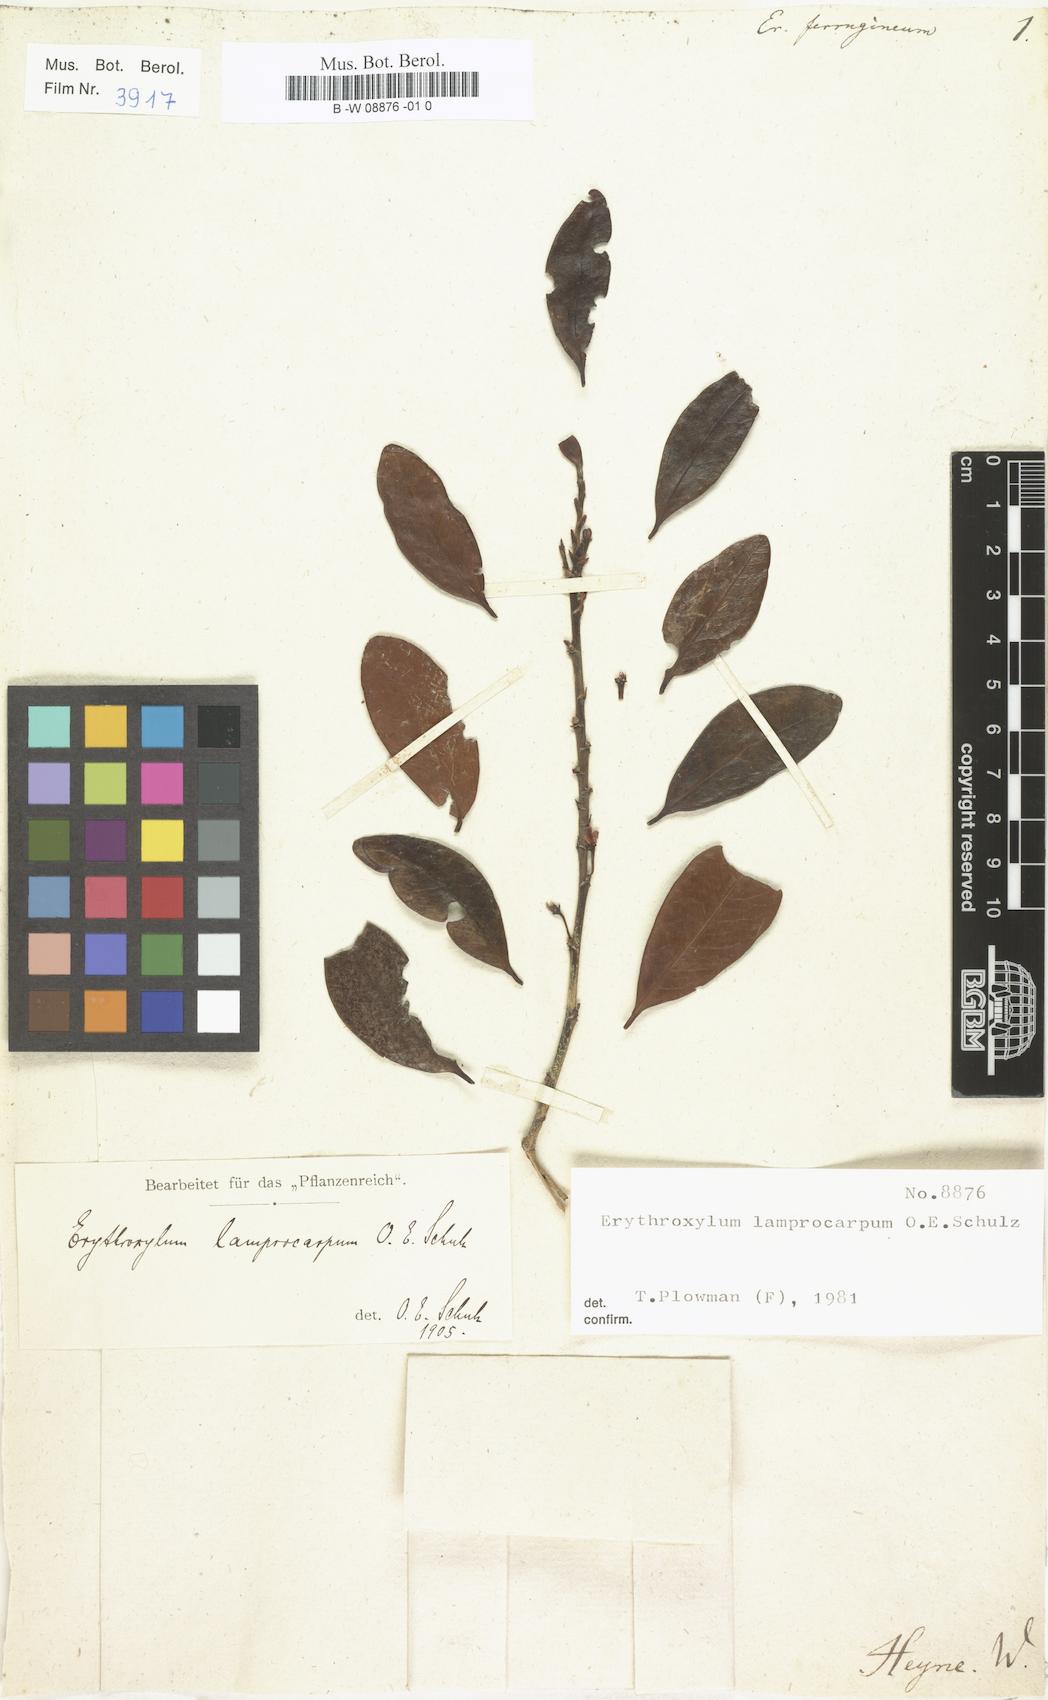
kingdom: Plantae
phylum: Tracheophyta
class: Magnoliopsida
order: Malpighiales
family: Erythroxylaceae
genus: Erythroxylum
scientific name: Erythroxylum ferrugineum
